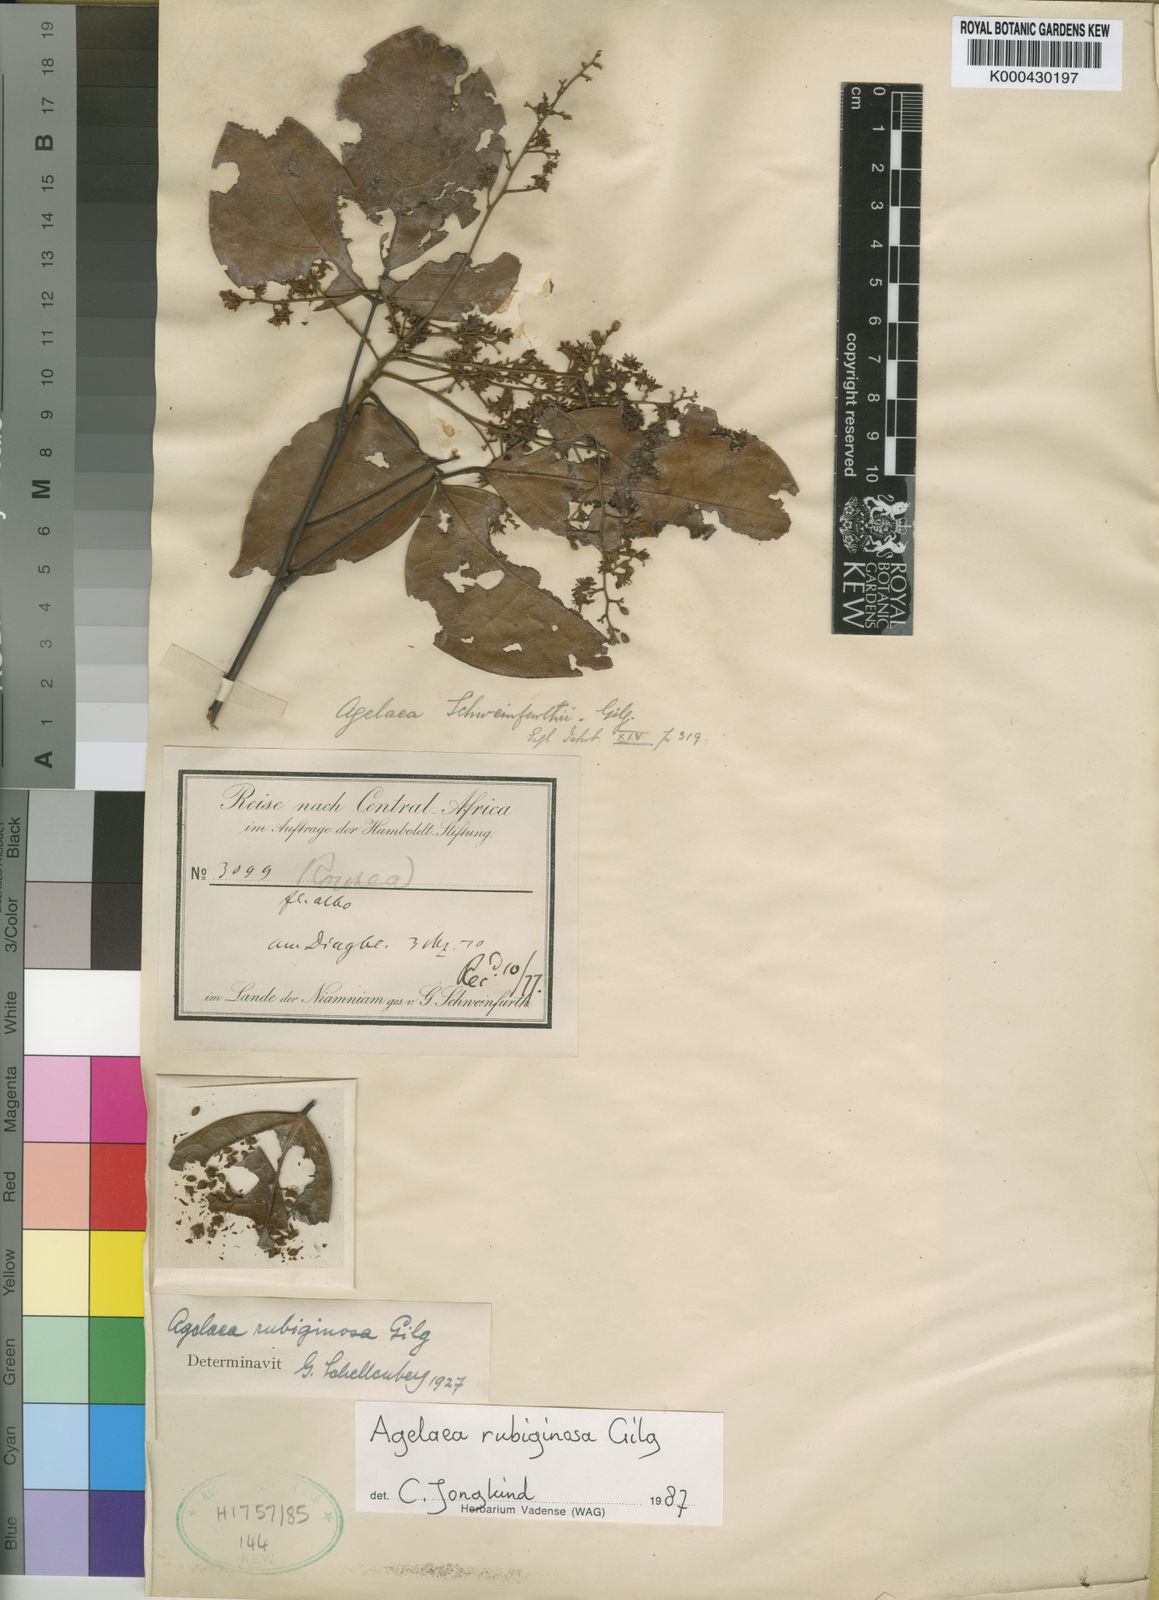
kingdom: Plantae
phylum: Tracheophyta
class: Magnoliopsida
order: Oxalidales
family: Connaraceae
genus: Agelaea
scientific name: Agelaea rubiginosa
